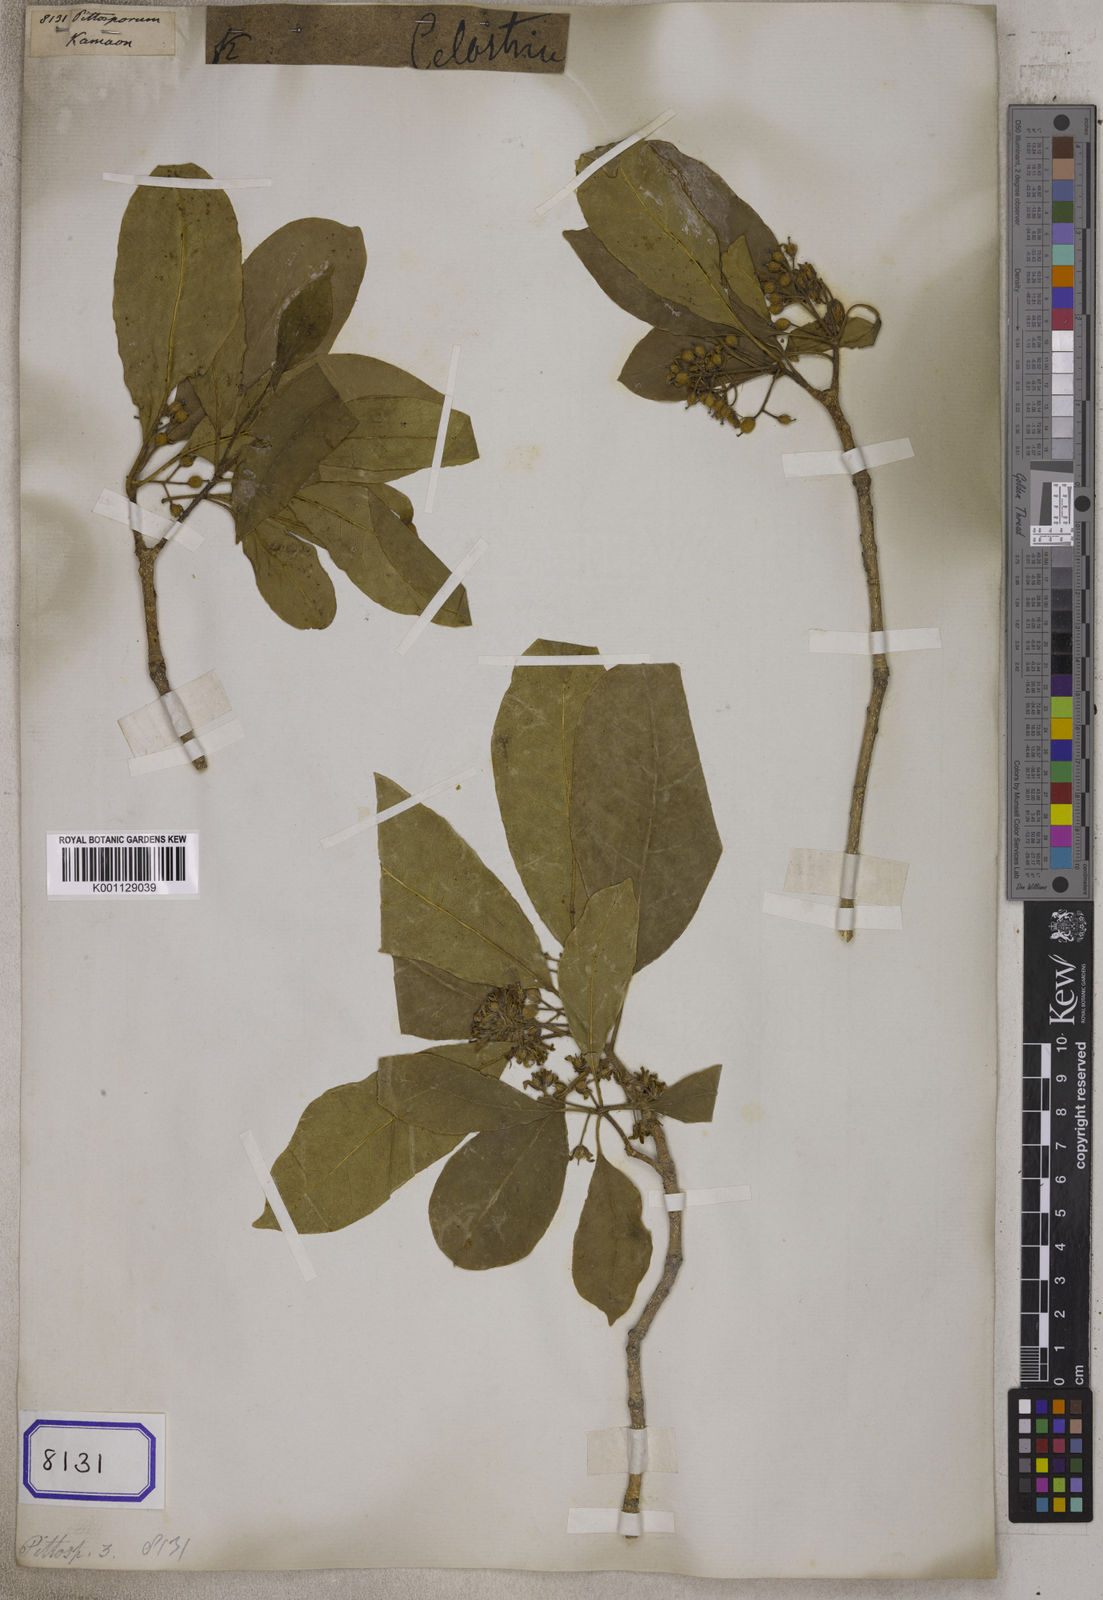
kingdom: Plantae
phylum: Tracheophyta
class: Magnoliopsida
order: Apiales
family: Pittosporaceae
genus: Pittosporum
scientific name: Pittosporum
